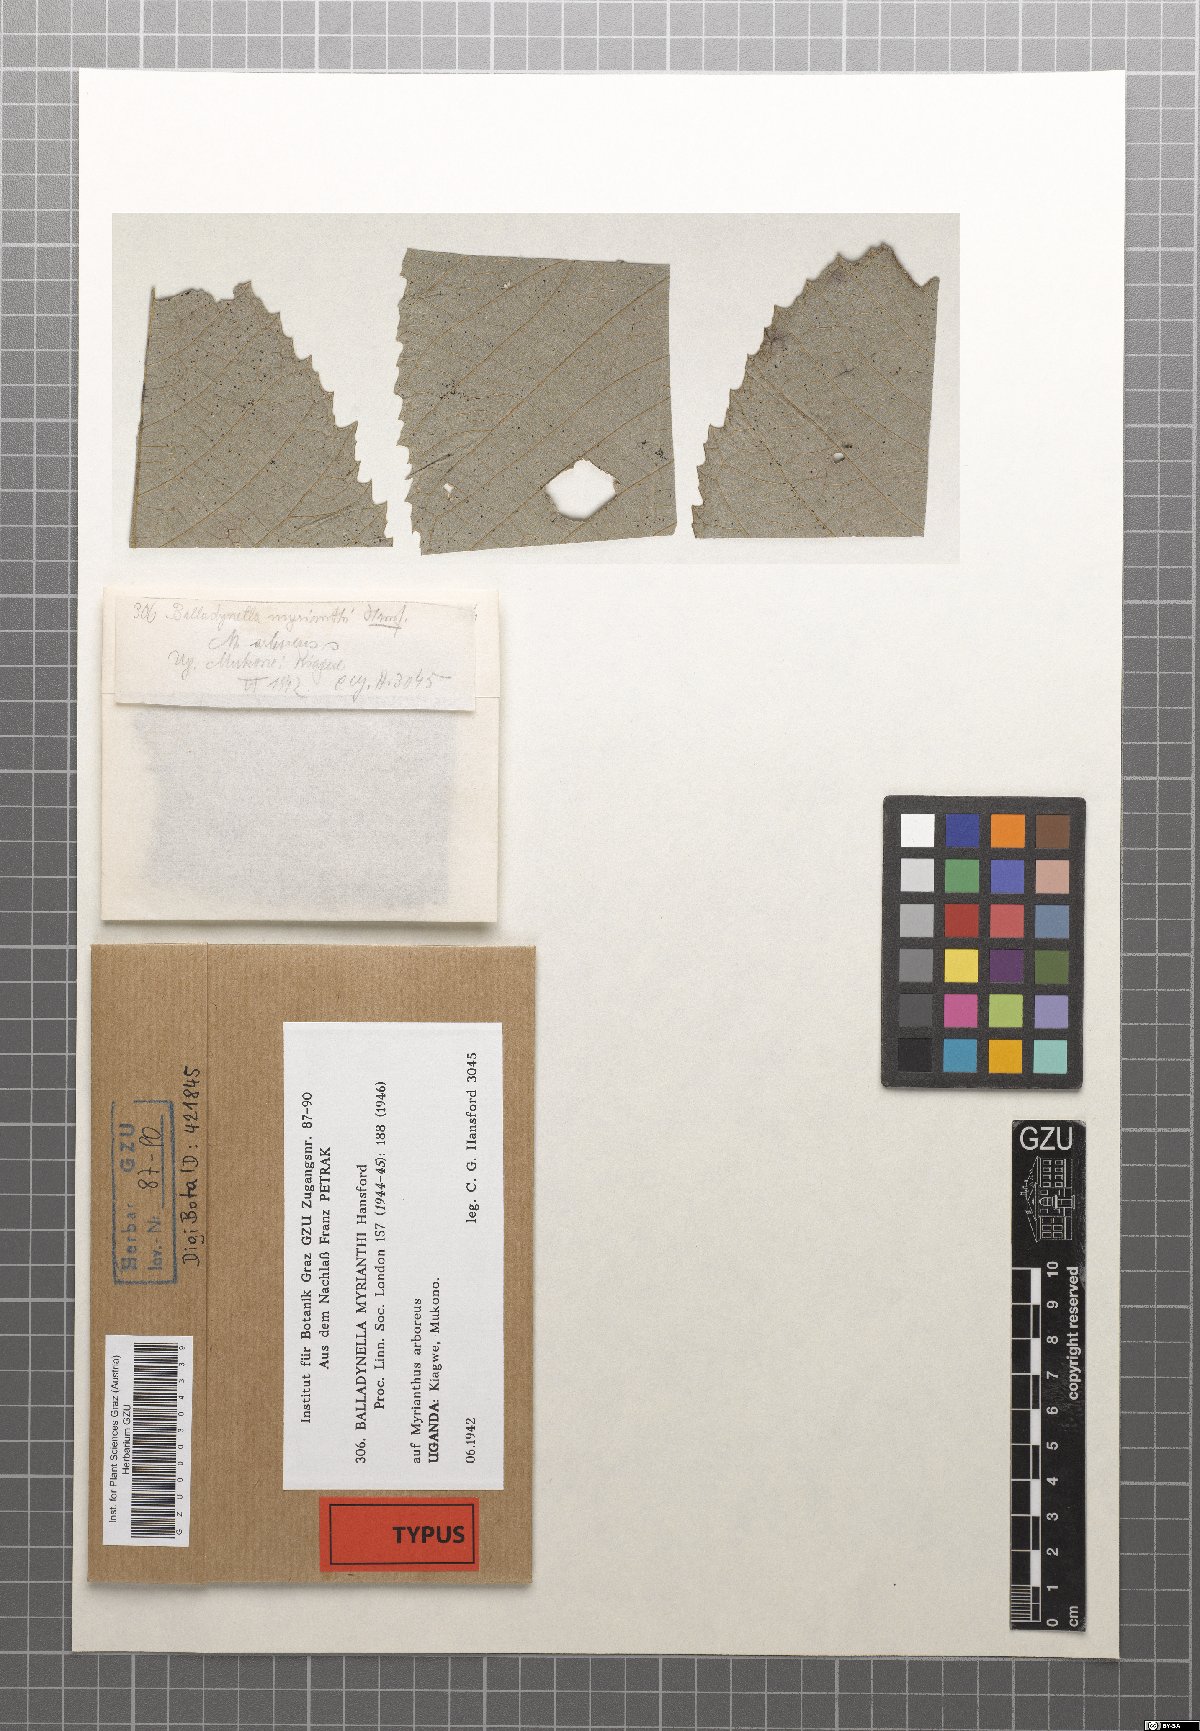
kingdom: Fungi
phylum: Ascomycota
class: Dothideomycetes
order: Dothideales
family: Parodiopsidaceae
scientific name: Parodiopsidaceae
